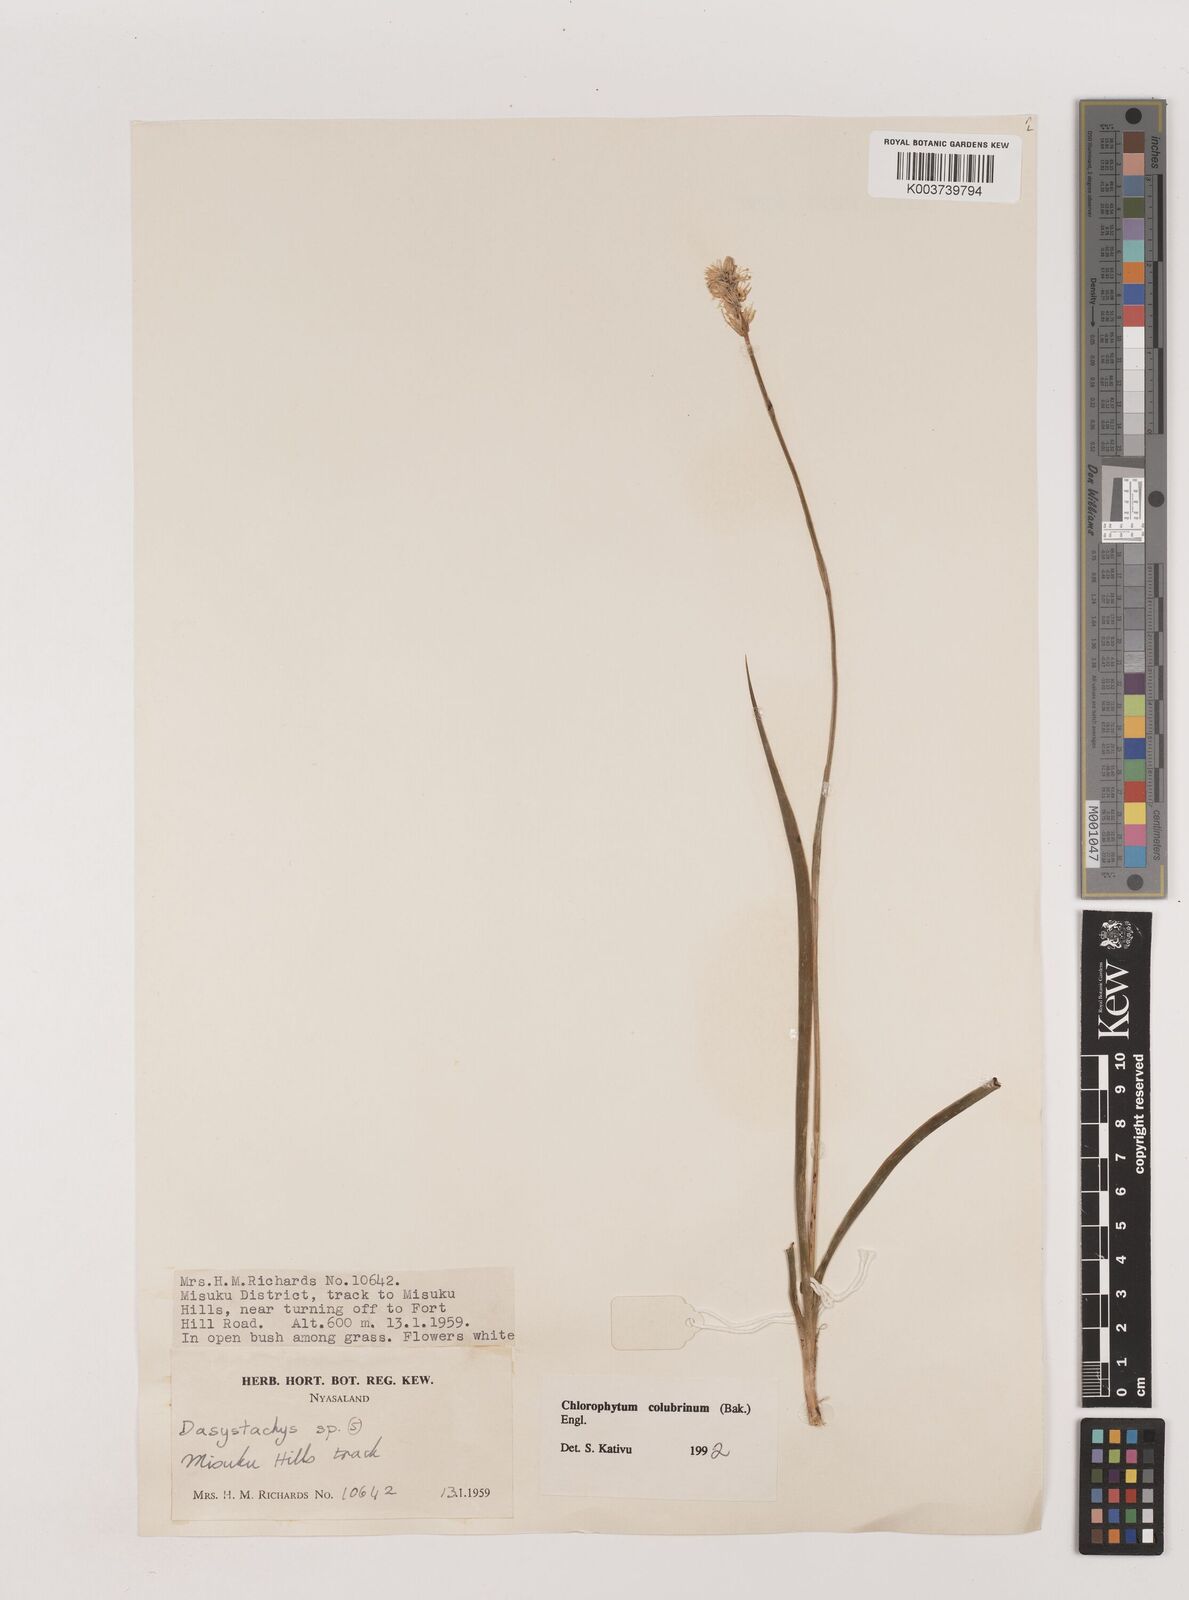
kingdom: Plantae
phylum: Tracheophyta
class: Liliopsida
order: Asparagales
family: Asparagaceae
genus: Chlorophytum
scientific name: Chlorophytum colubrinum
